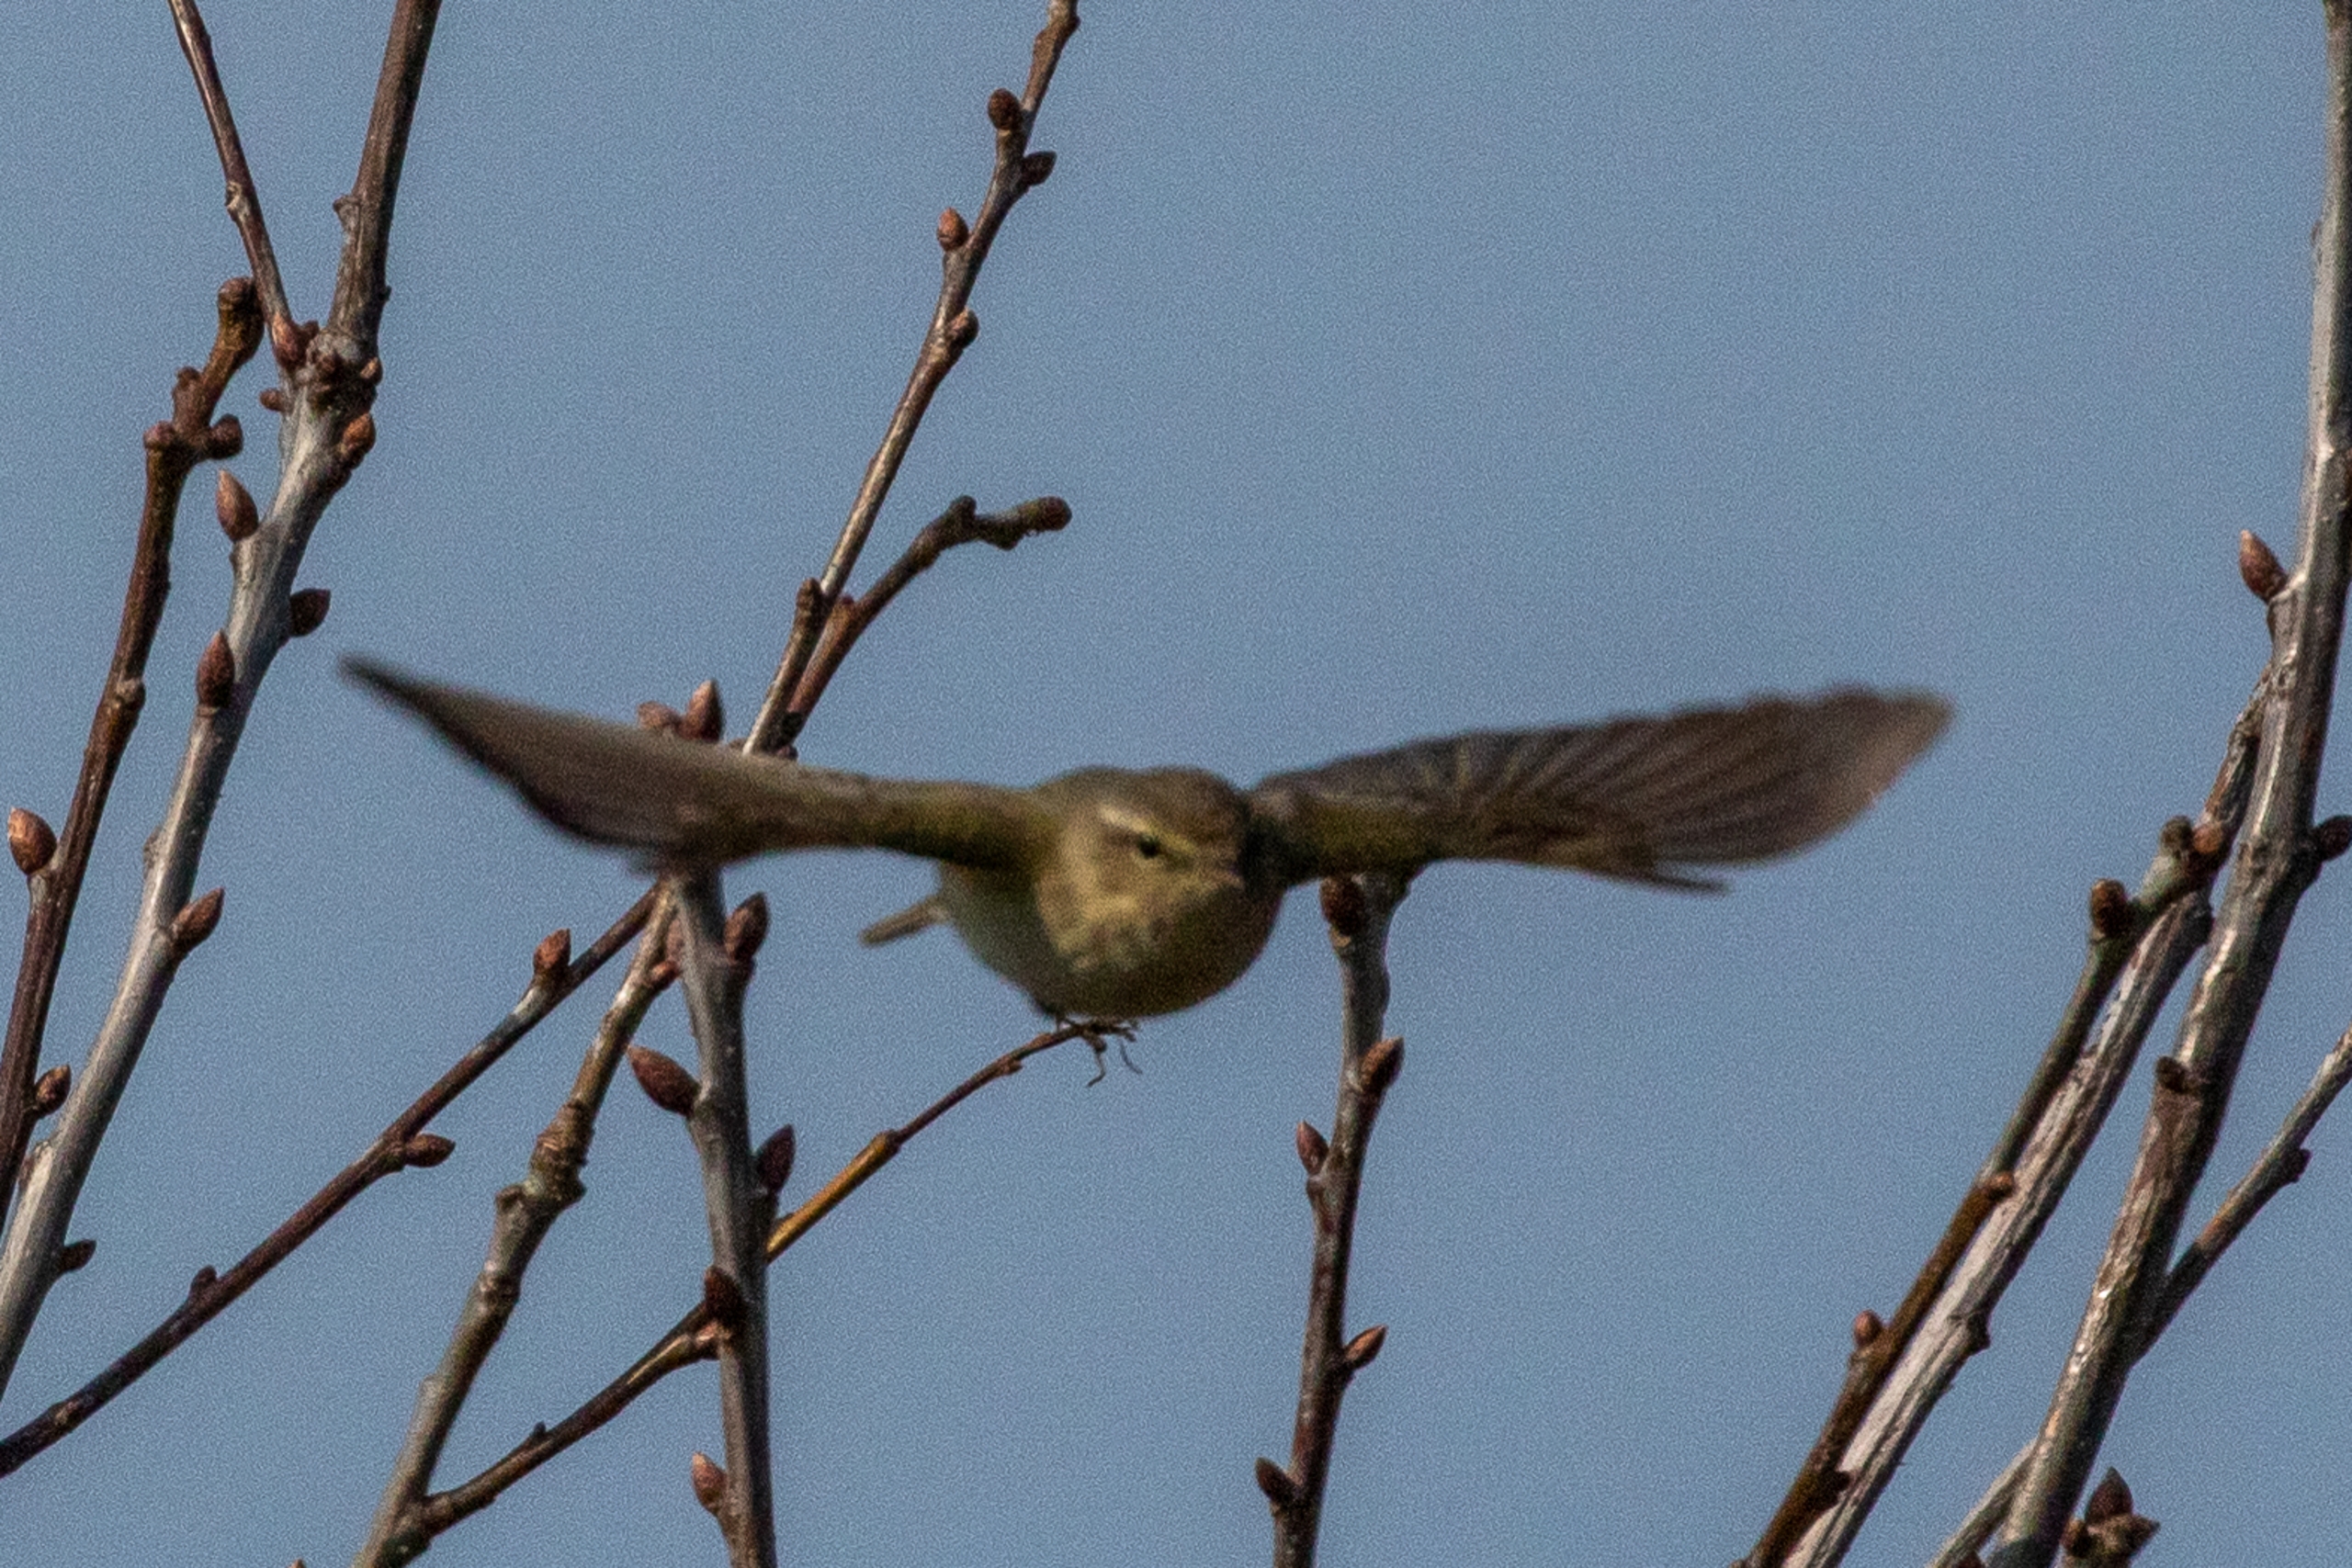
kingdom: Animalia
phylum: Chordata
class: Aves
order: Passeriformes
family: Phylloscopidae
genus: Phylloscopus
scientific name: Phylloscopus collybita
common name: Gransanger
